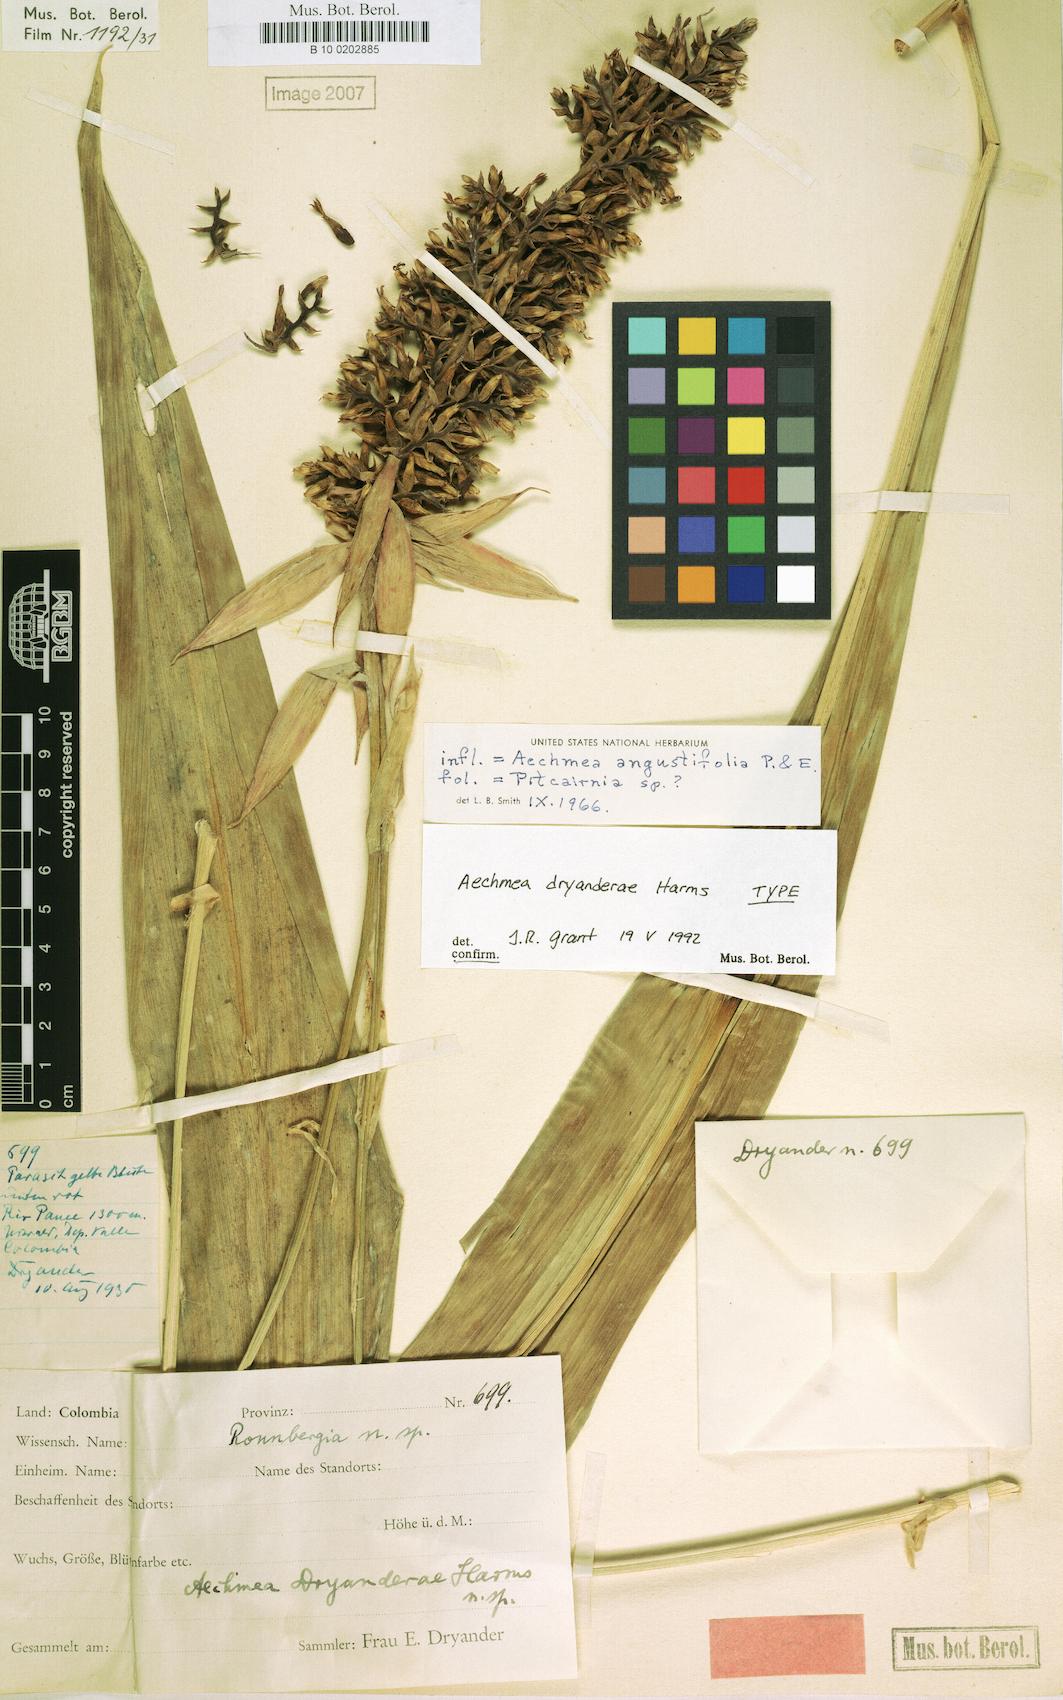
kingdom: Plantae
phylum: Tracheophyta
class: Liliopsida
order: Poales
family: Bromeliaceae
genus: Aechmea
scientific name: Aechmea angustifolia
